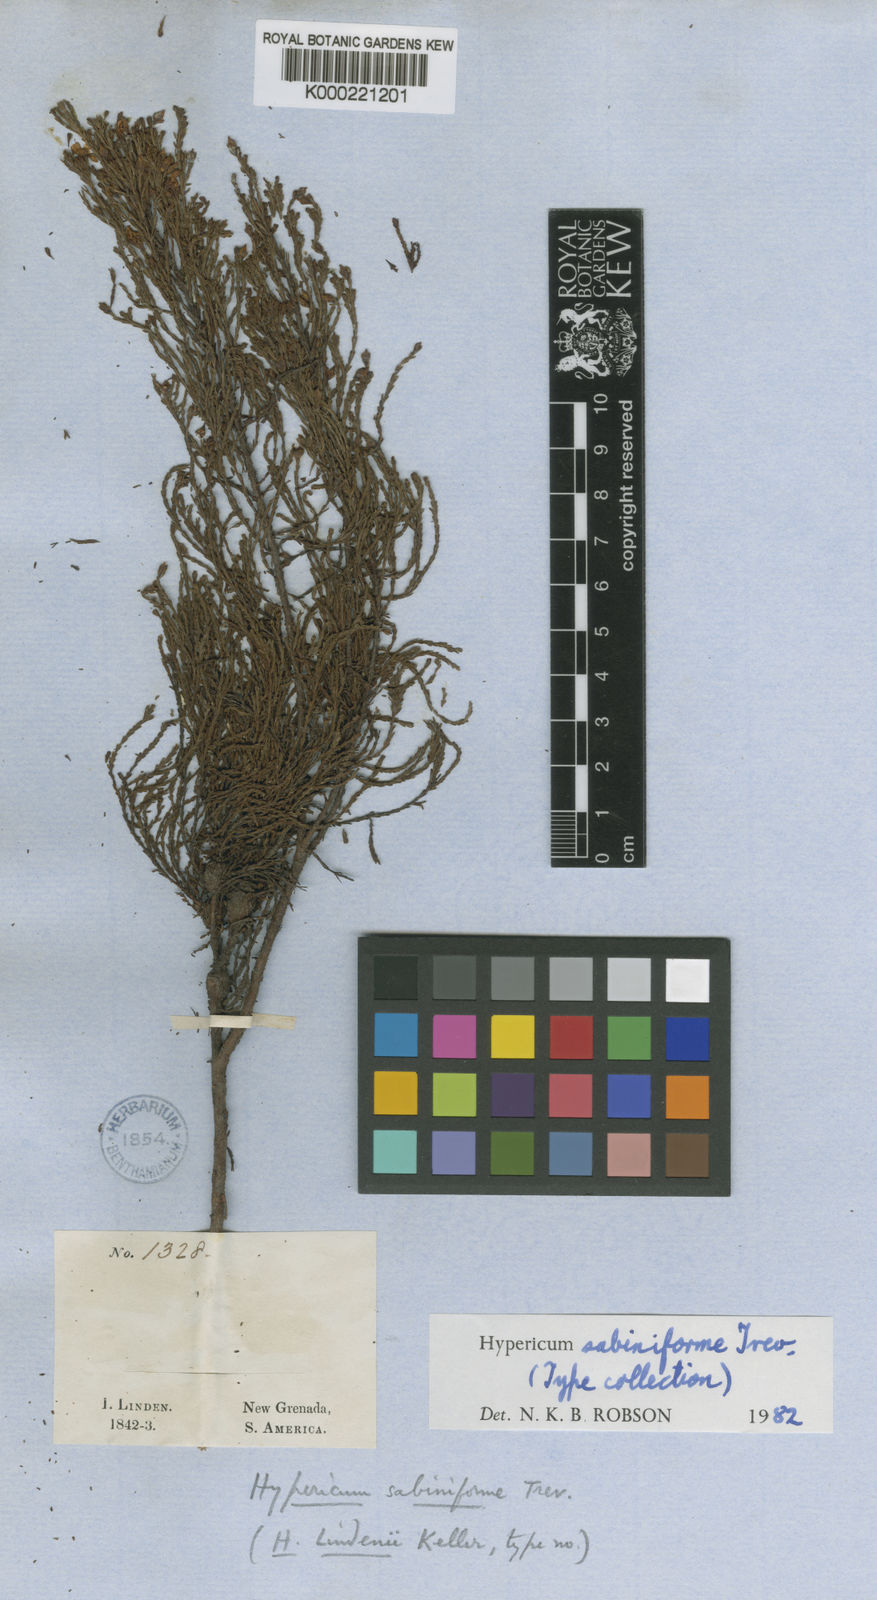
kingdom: Plantae
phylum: Tracheophyta
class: Magnoliopsida
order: Malpighiales
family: Hypericaceae
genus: Hypericum
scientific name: Hypericum sabiniforme
